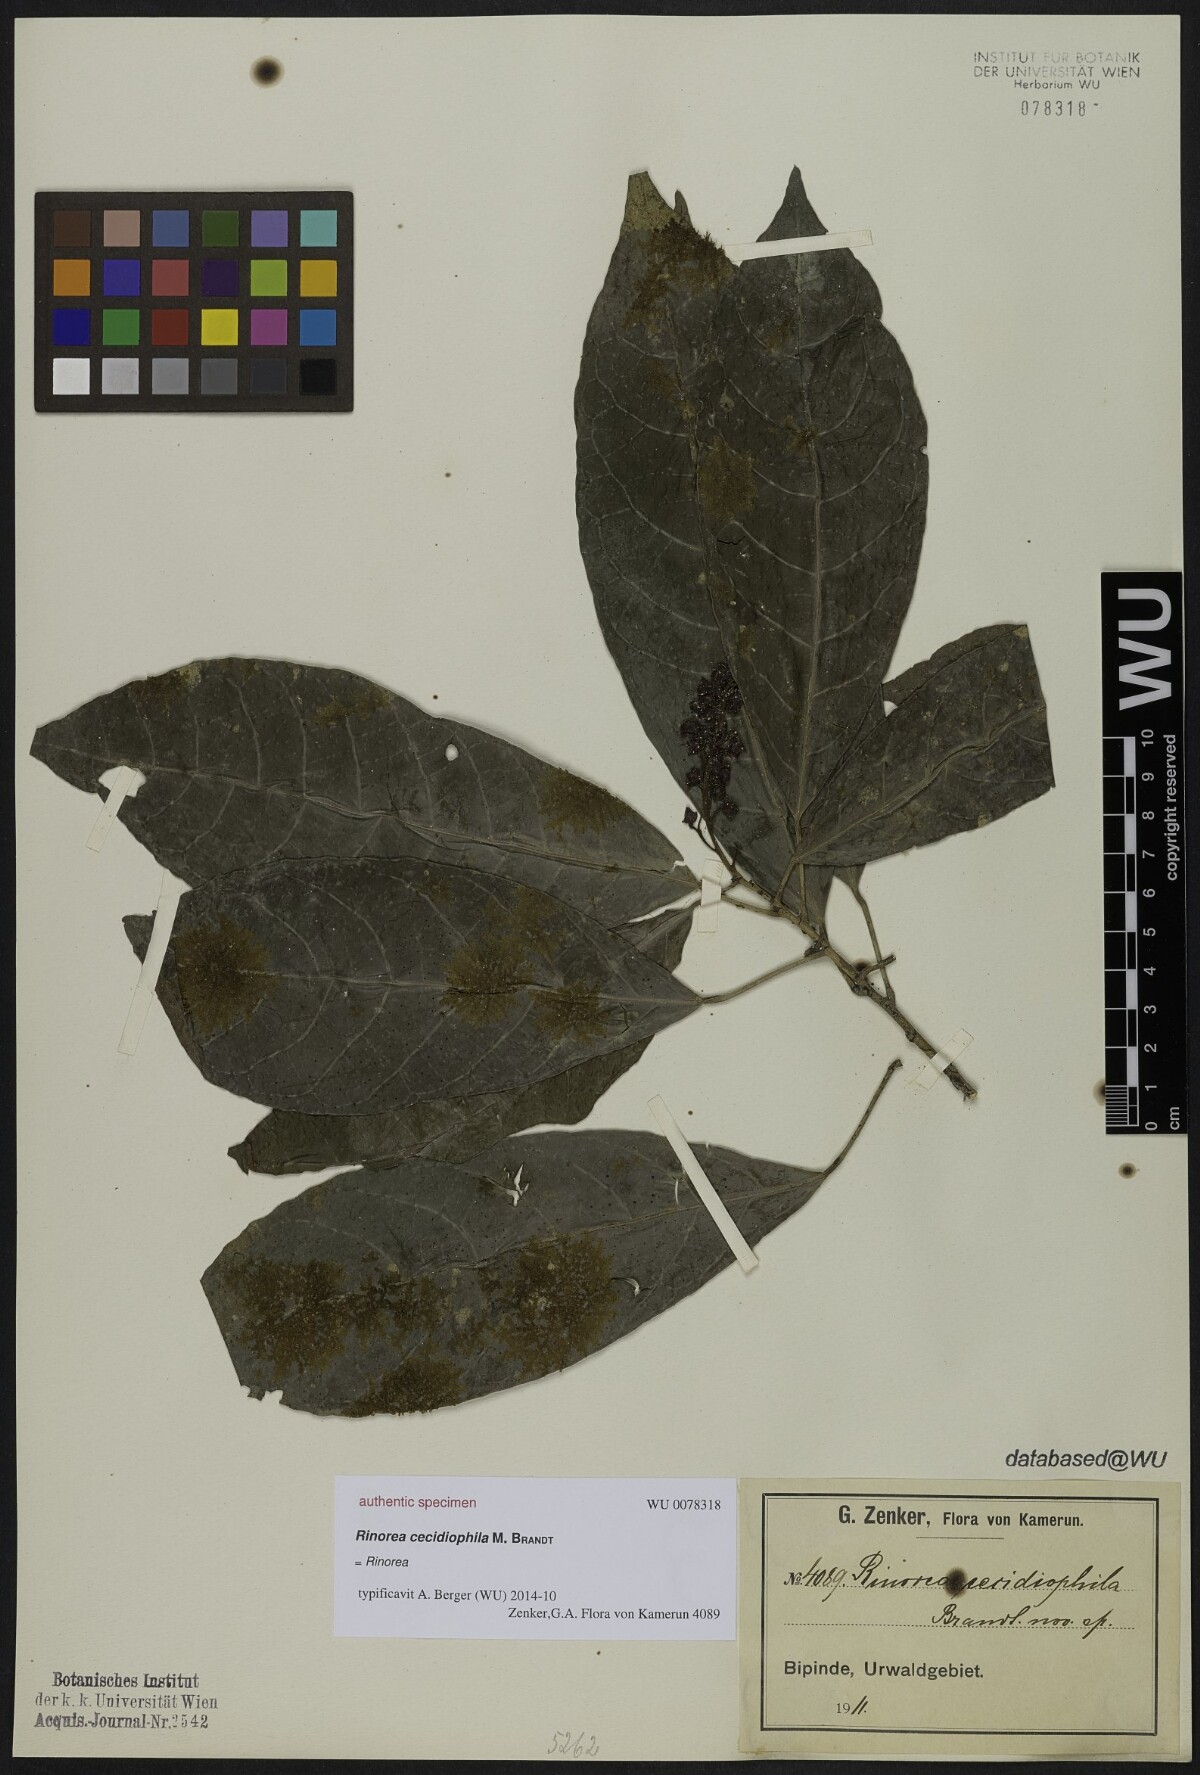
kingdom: Plantae
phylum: Tracheophyta
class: Magnoliopsida
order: Malpighiales
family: Violaceae
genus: Rinorea
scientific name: Rinorea
